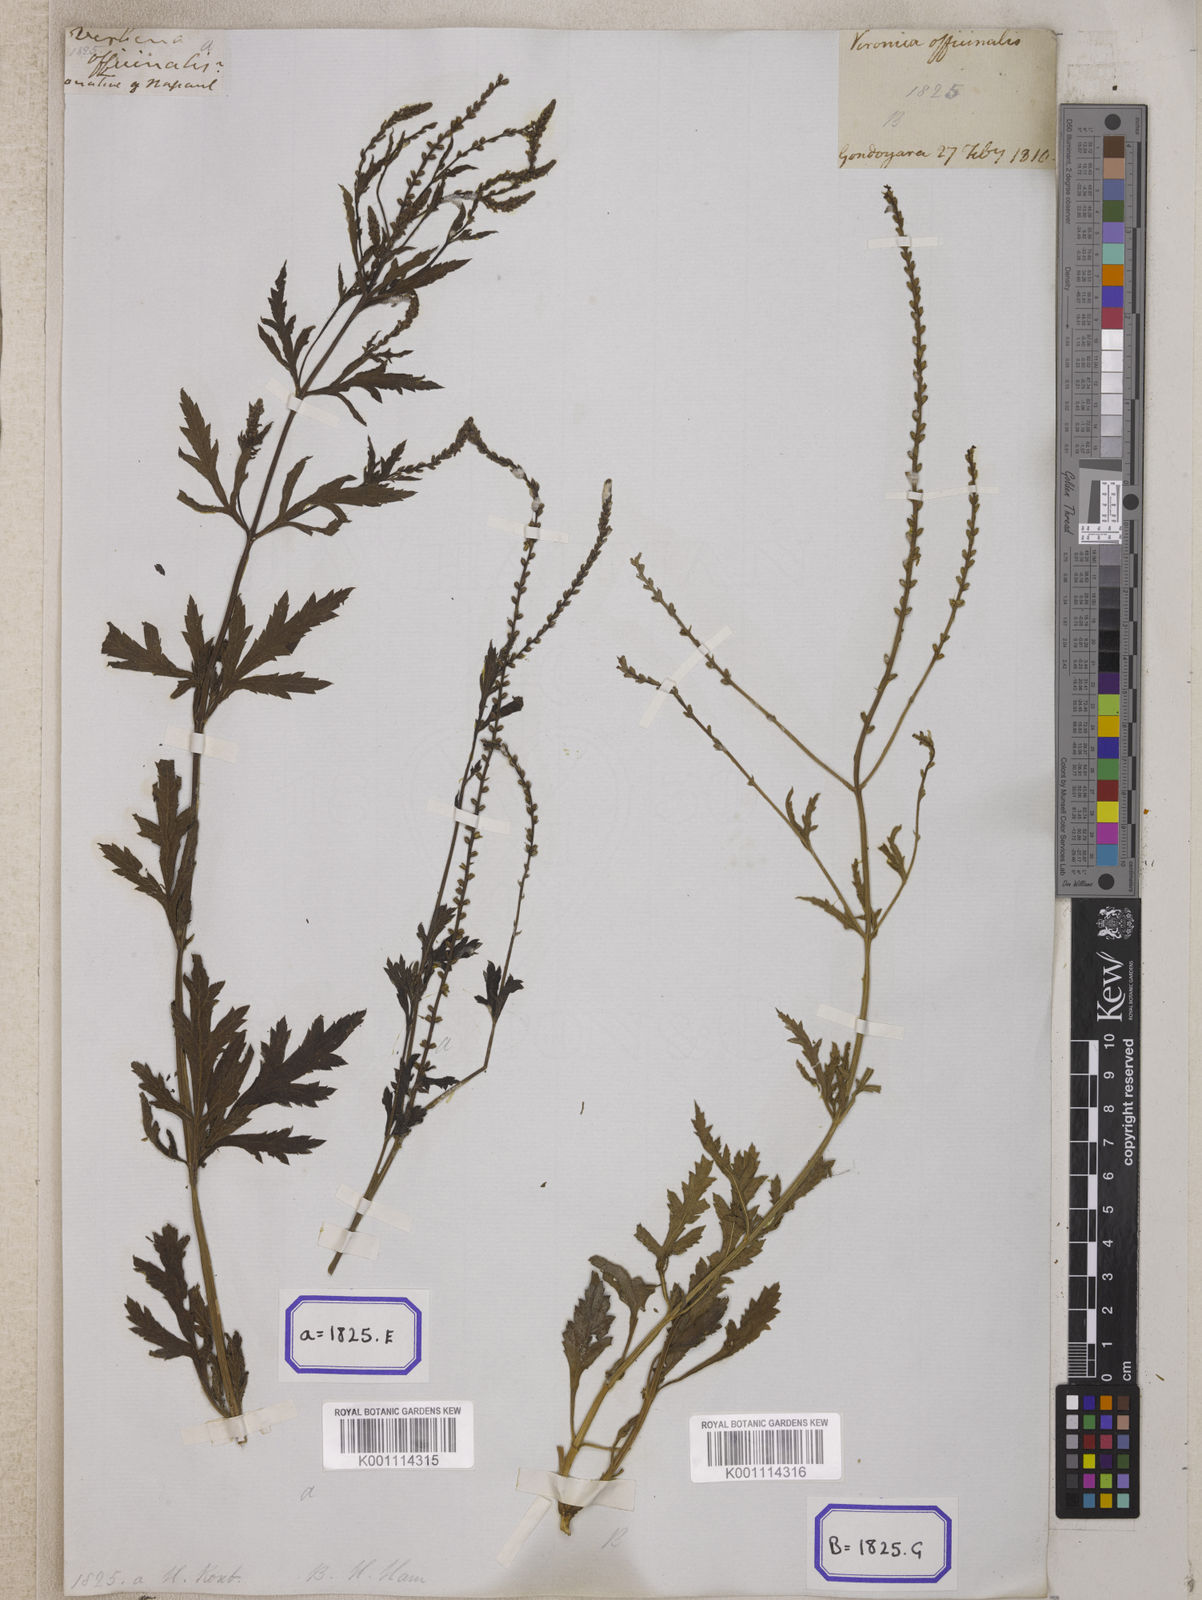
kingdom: Plantae
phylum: Tracheophyta
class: Magnoliopsida
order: Lamiales
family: Verbenaceae
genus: Verbena
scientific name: Verbena officinalis
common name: Vervain
